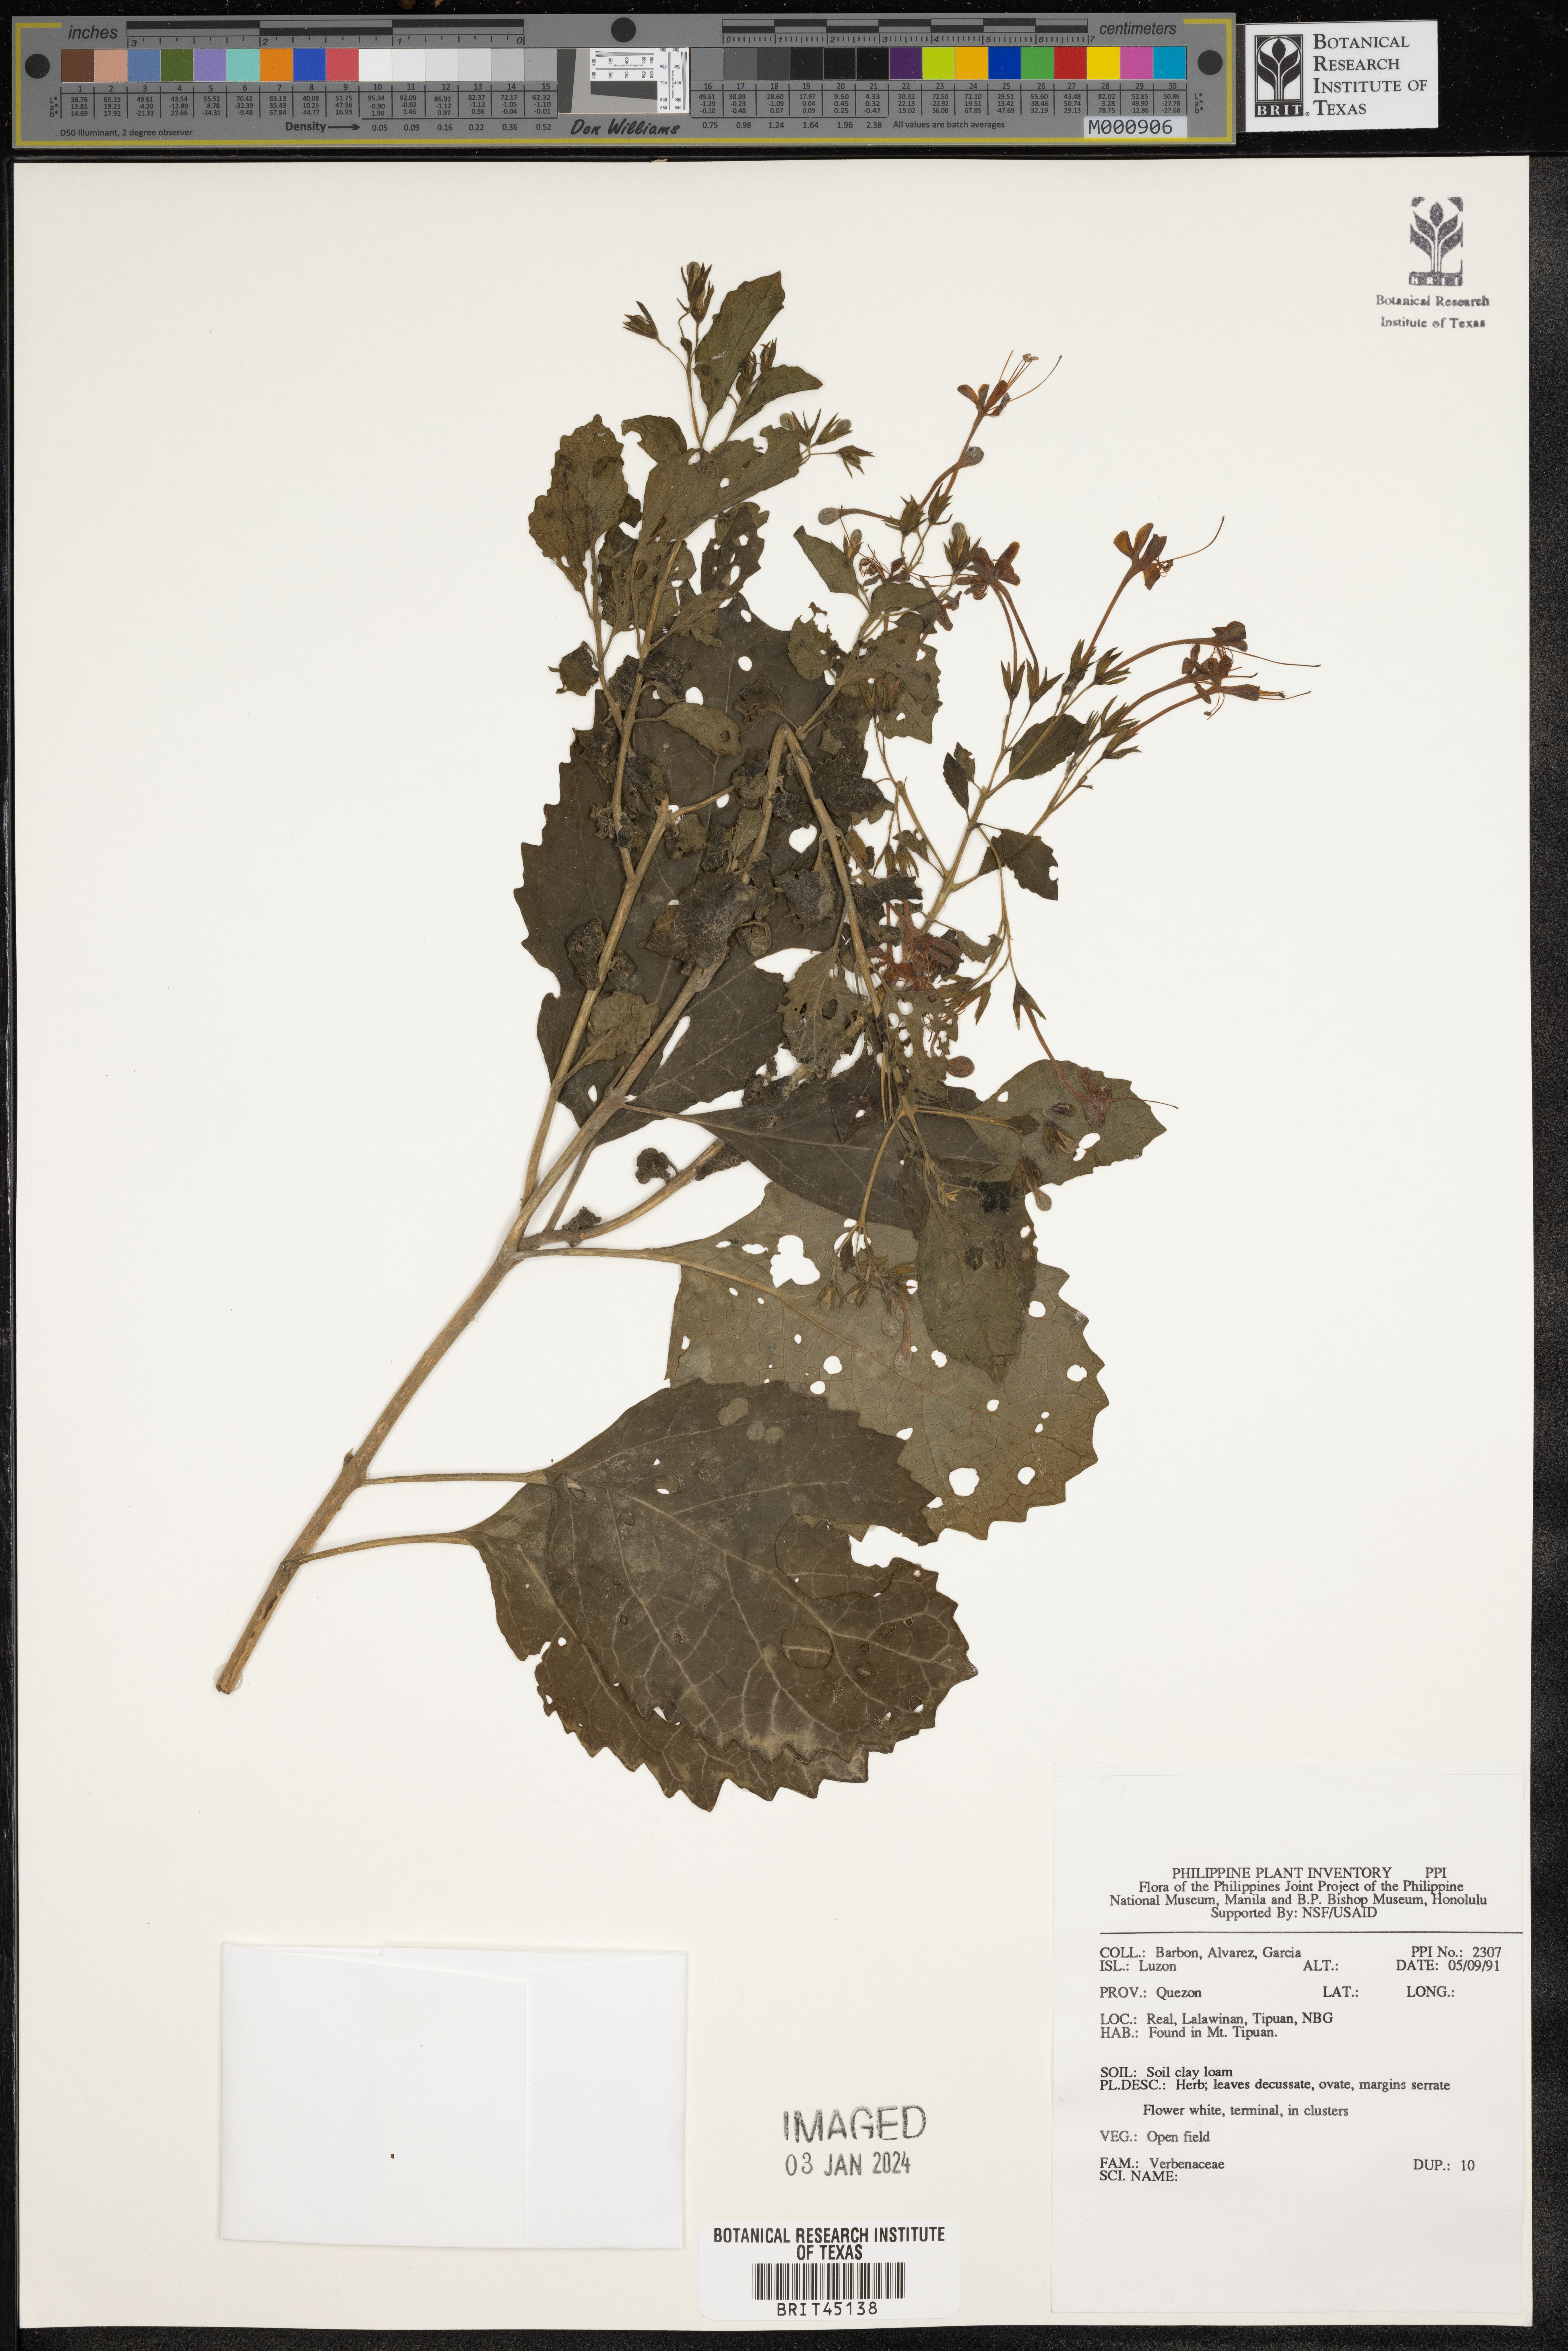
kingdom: Plantae
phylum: Tracheophyta
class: Magnoliopsida
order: Lamiales
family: Verbenaceae
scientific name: Verbenaceae
